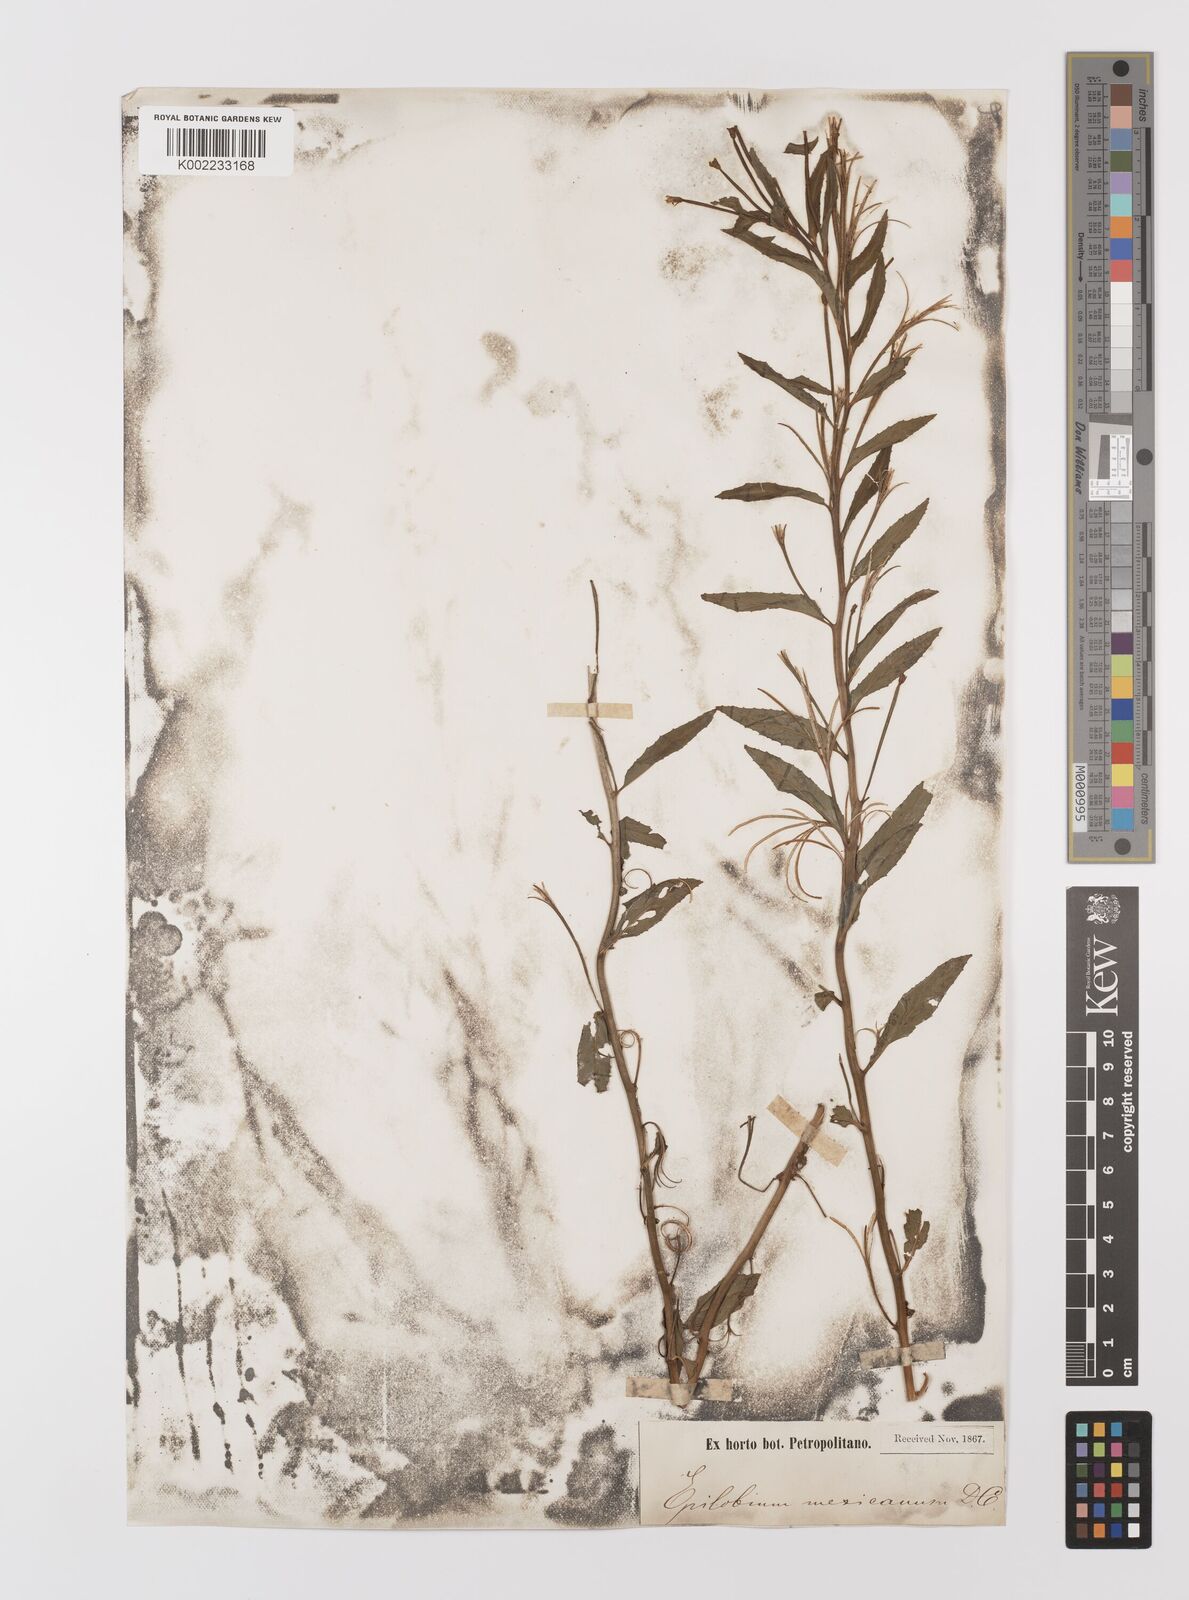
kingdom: Plantae
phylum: Tracheophyta
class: Magnoliopsida
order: Myrtales
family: Onagraceae
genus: Epilobium
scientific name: Epilobium
